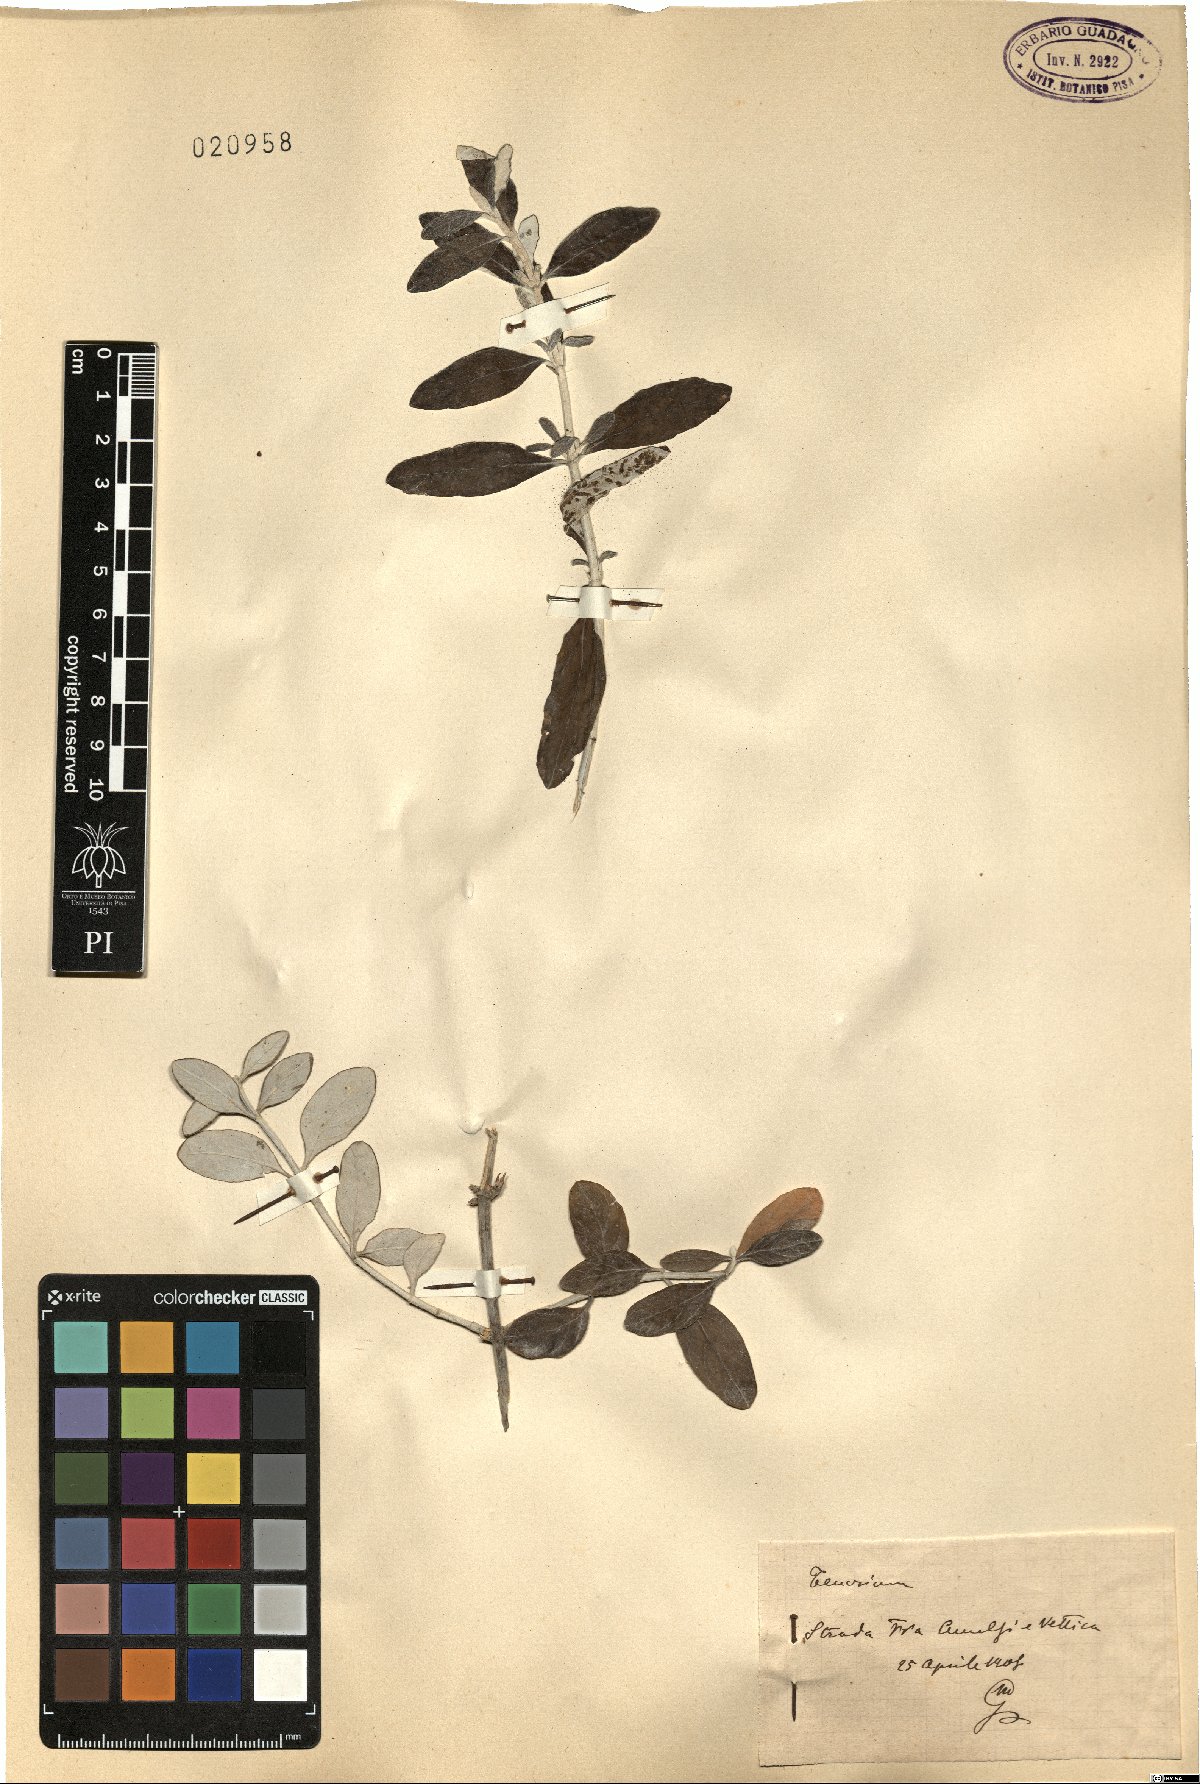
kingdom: Plantae
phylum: Tracheophyta
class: Magnoliopsida
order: Lamiales
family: Lamiaceae
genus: Teucrium
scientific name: Teucrium
